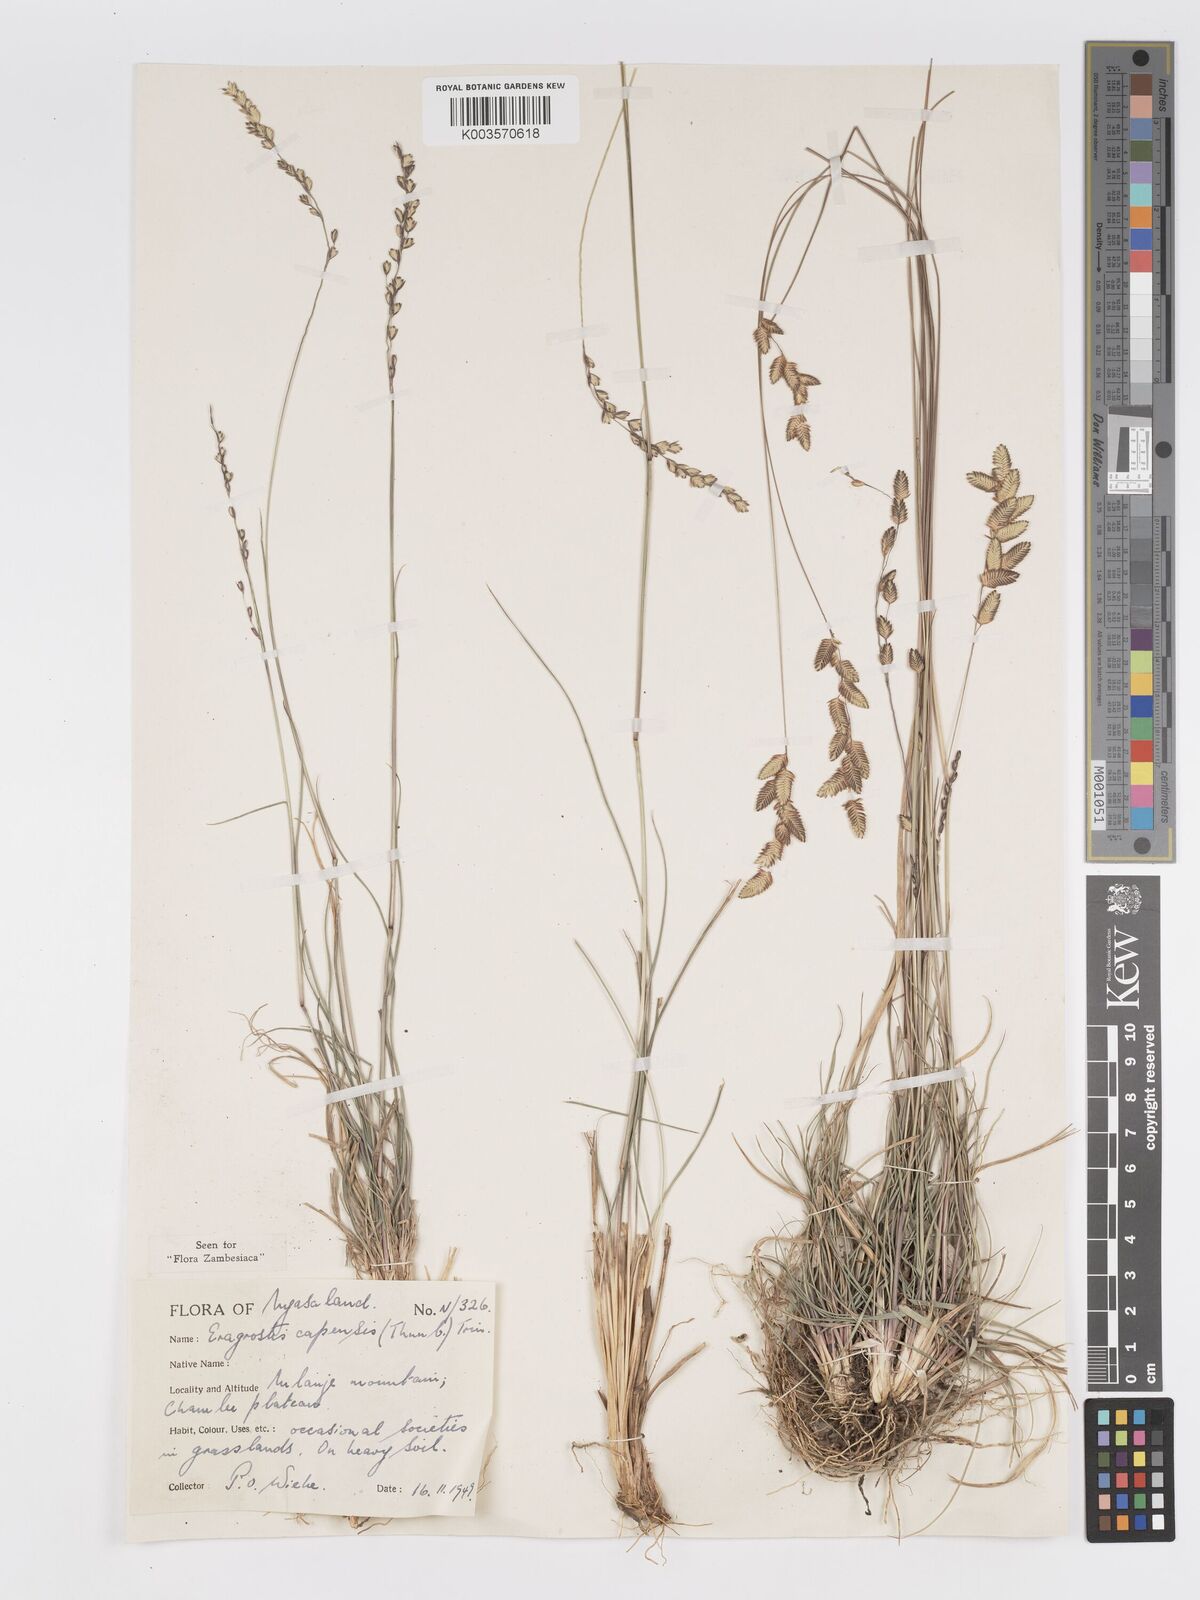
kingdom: Plantae
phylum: Tracheophyta
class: Liliopsida
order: Poales
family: Poaceae
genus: Eragrostis
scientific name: Eragrostis capensis
